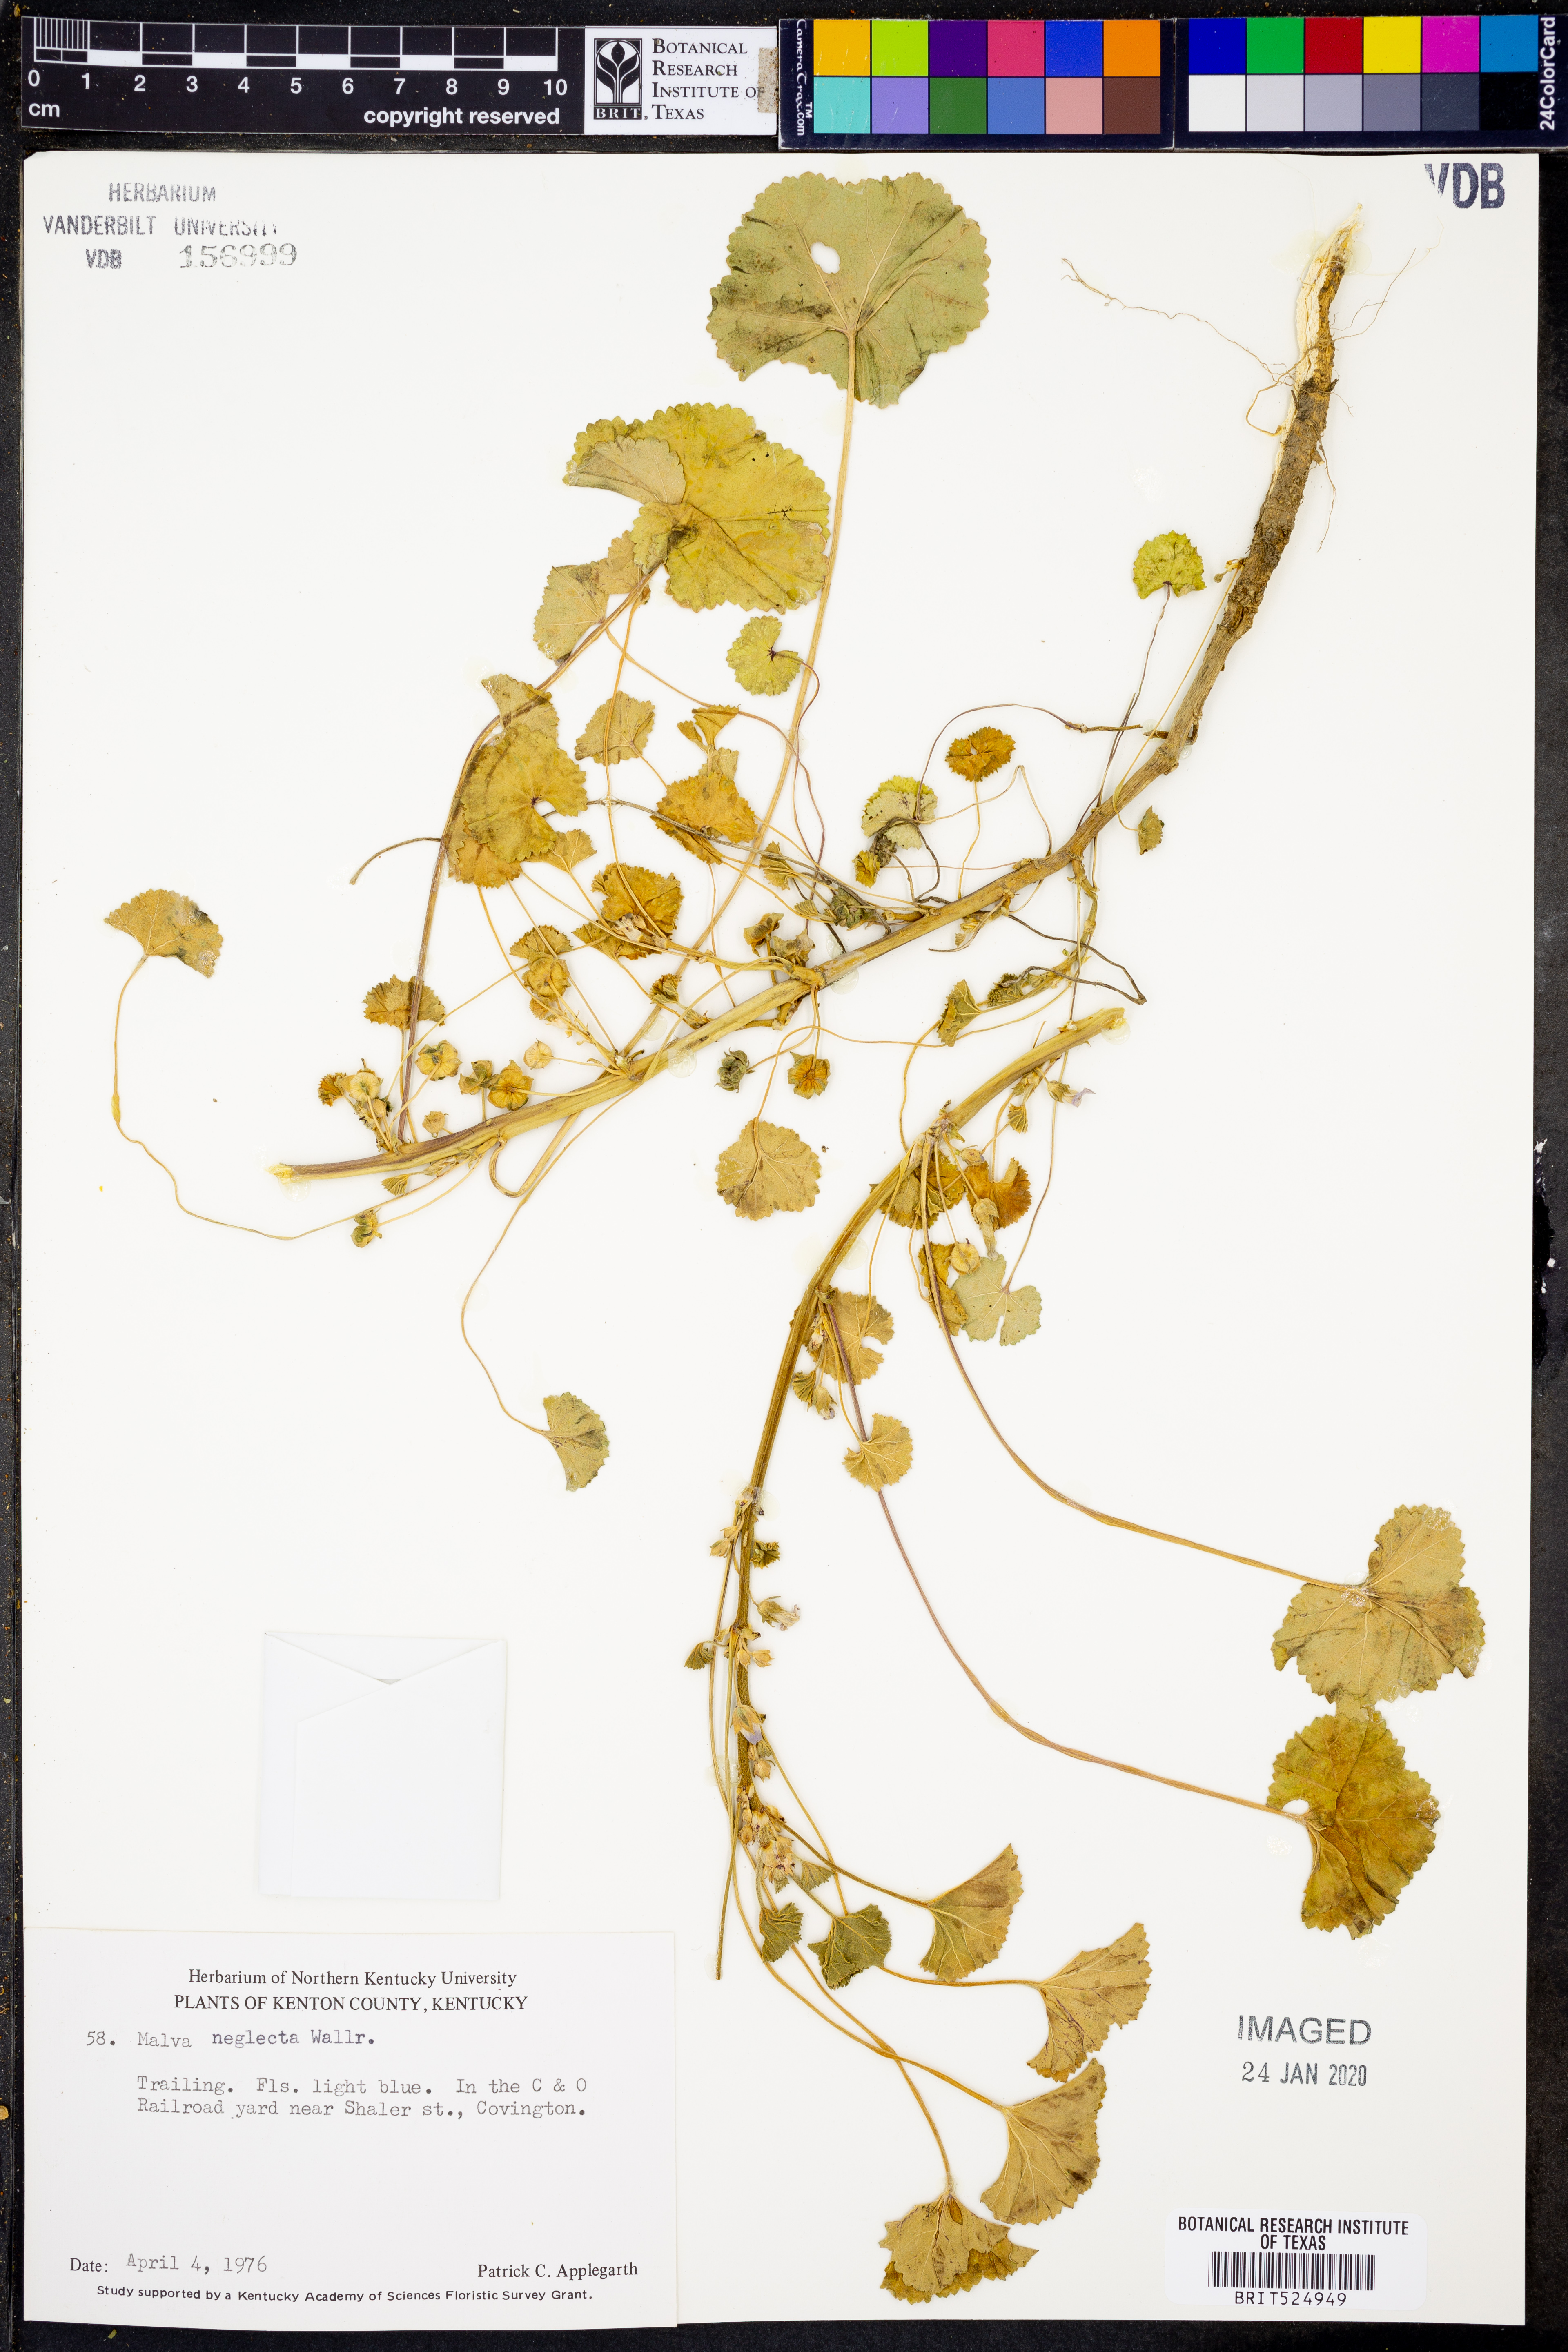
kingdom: Plantae
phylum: Tracheophyta
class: Magnoliopsida
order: Malvales
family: Malvaceae
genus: Malva
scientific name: Malva neglecta
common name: Common mallow
